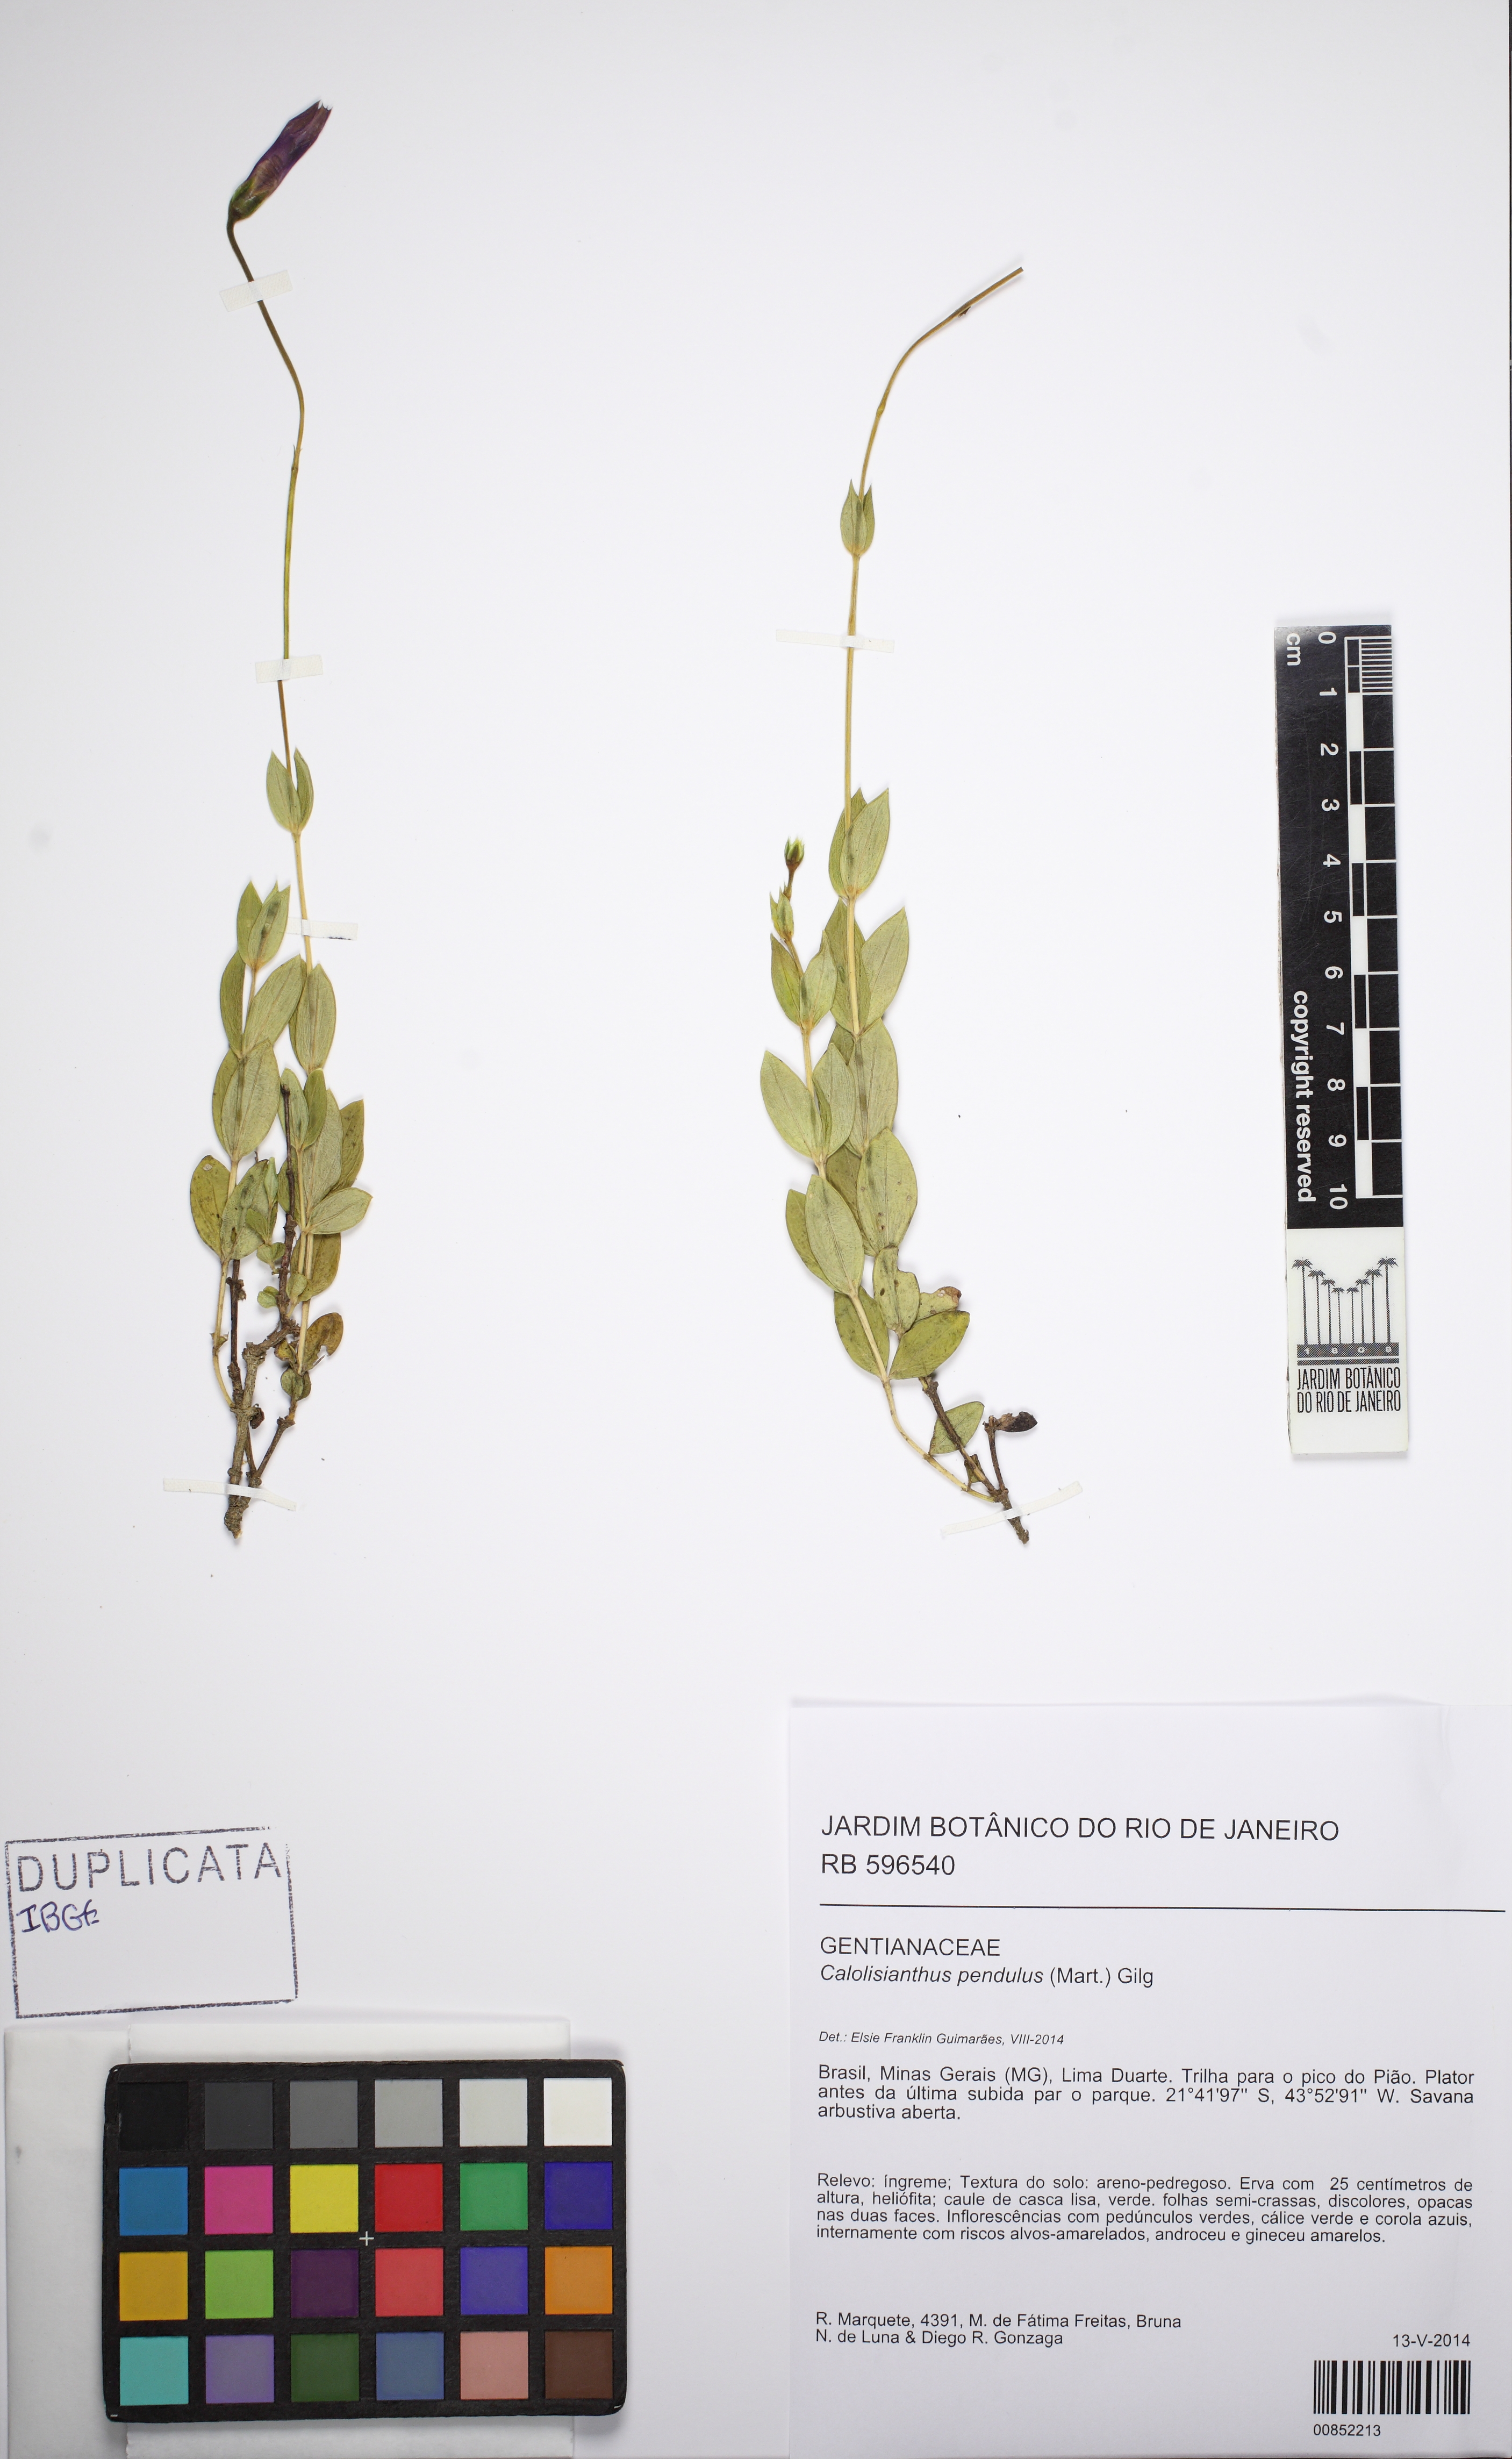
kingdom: Plantae
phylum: Tracheophyta
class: Magnoliopsida
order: Gentianales
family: Gentianaceae
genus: Calolisianthus
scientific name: Calolisianthus pendulus
